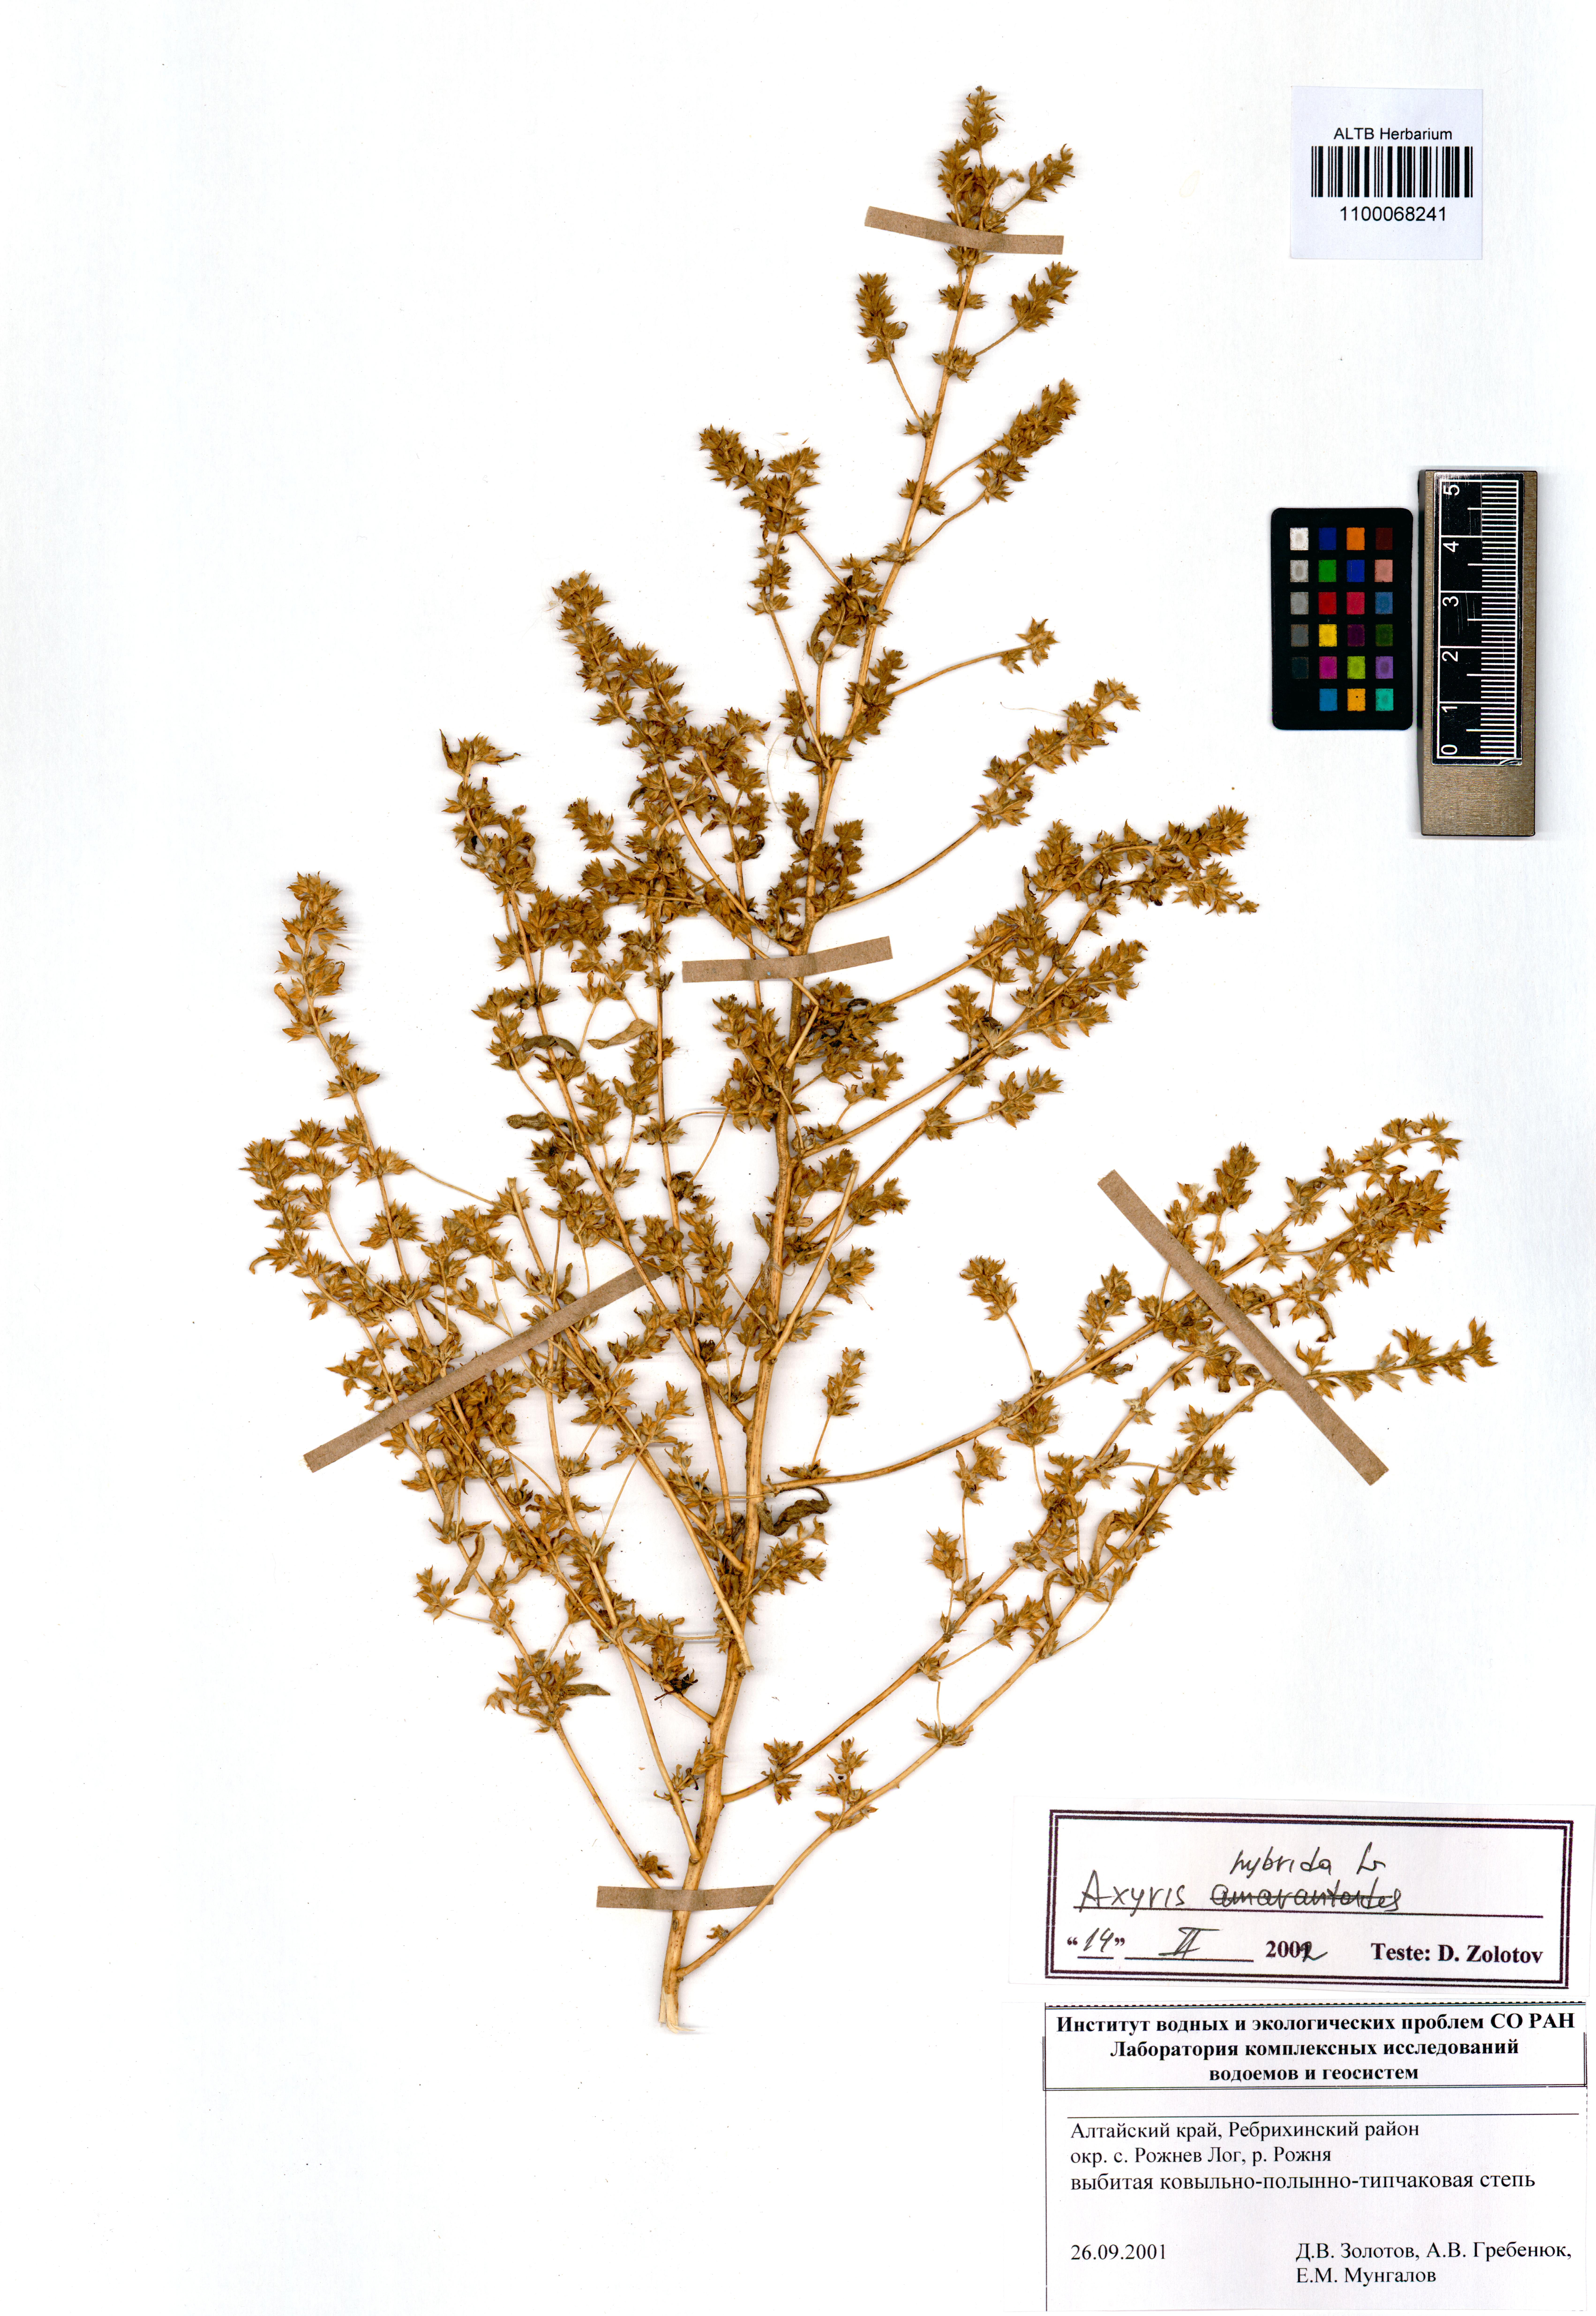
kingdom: Plantae
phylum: Tracheophyta
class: Magnoliopsida
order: Caryophyllales
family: Amaranthaceae
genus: Axyris
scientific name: Axyris hybrida
